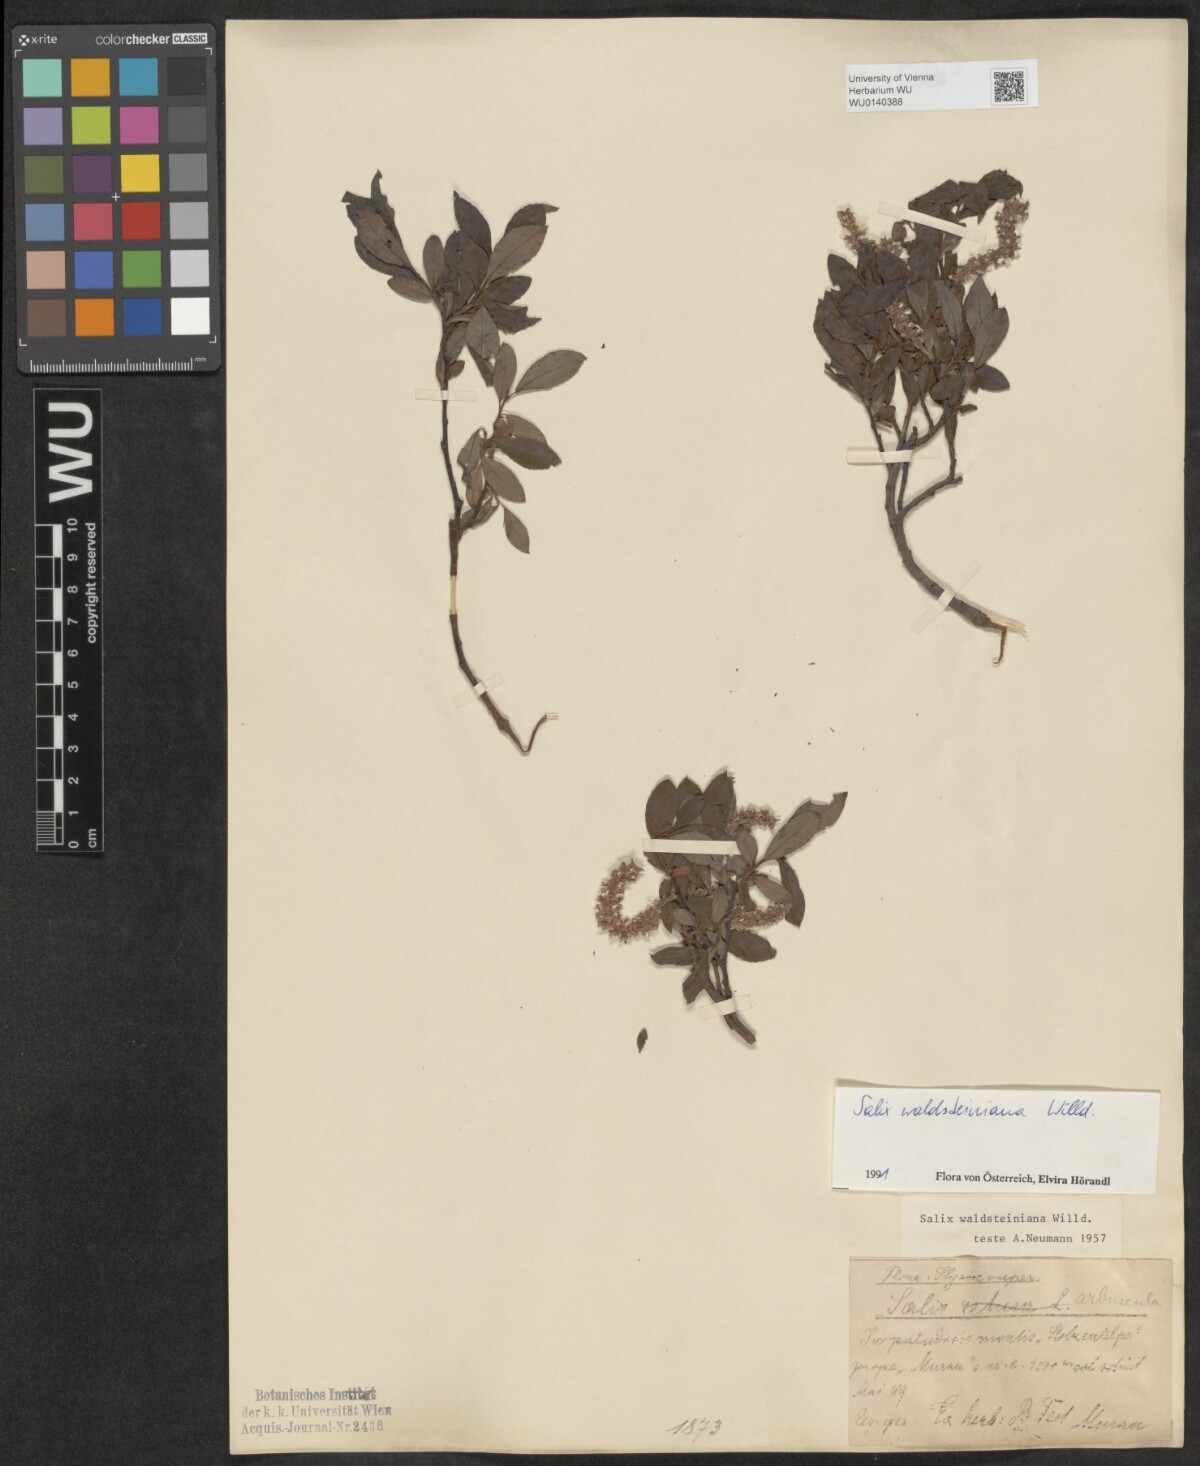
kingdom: Plantae
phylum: Tracheophyta
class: Magnoliopsida
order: Malpighiales
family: Salicaceae
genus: Salix
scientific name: Salix waldsteiniana
